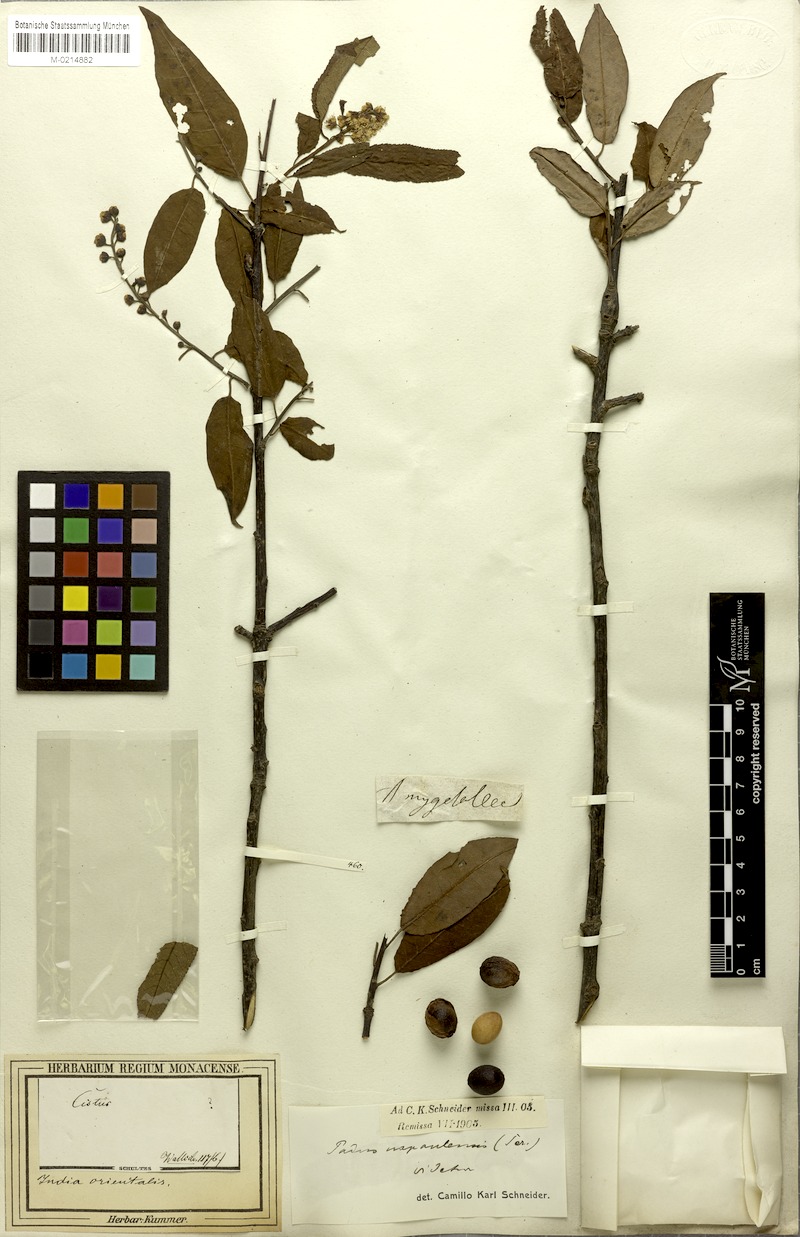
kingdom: Plantae
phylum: Tracheophyta
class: Magnoliopsida
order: Rosales
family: Rosaceae
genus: Prunus
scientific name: Prunus napaulensis
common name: Khasia cherry
